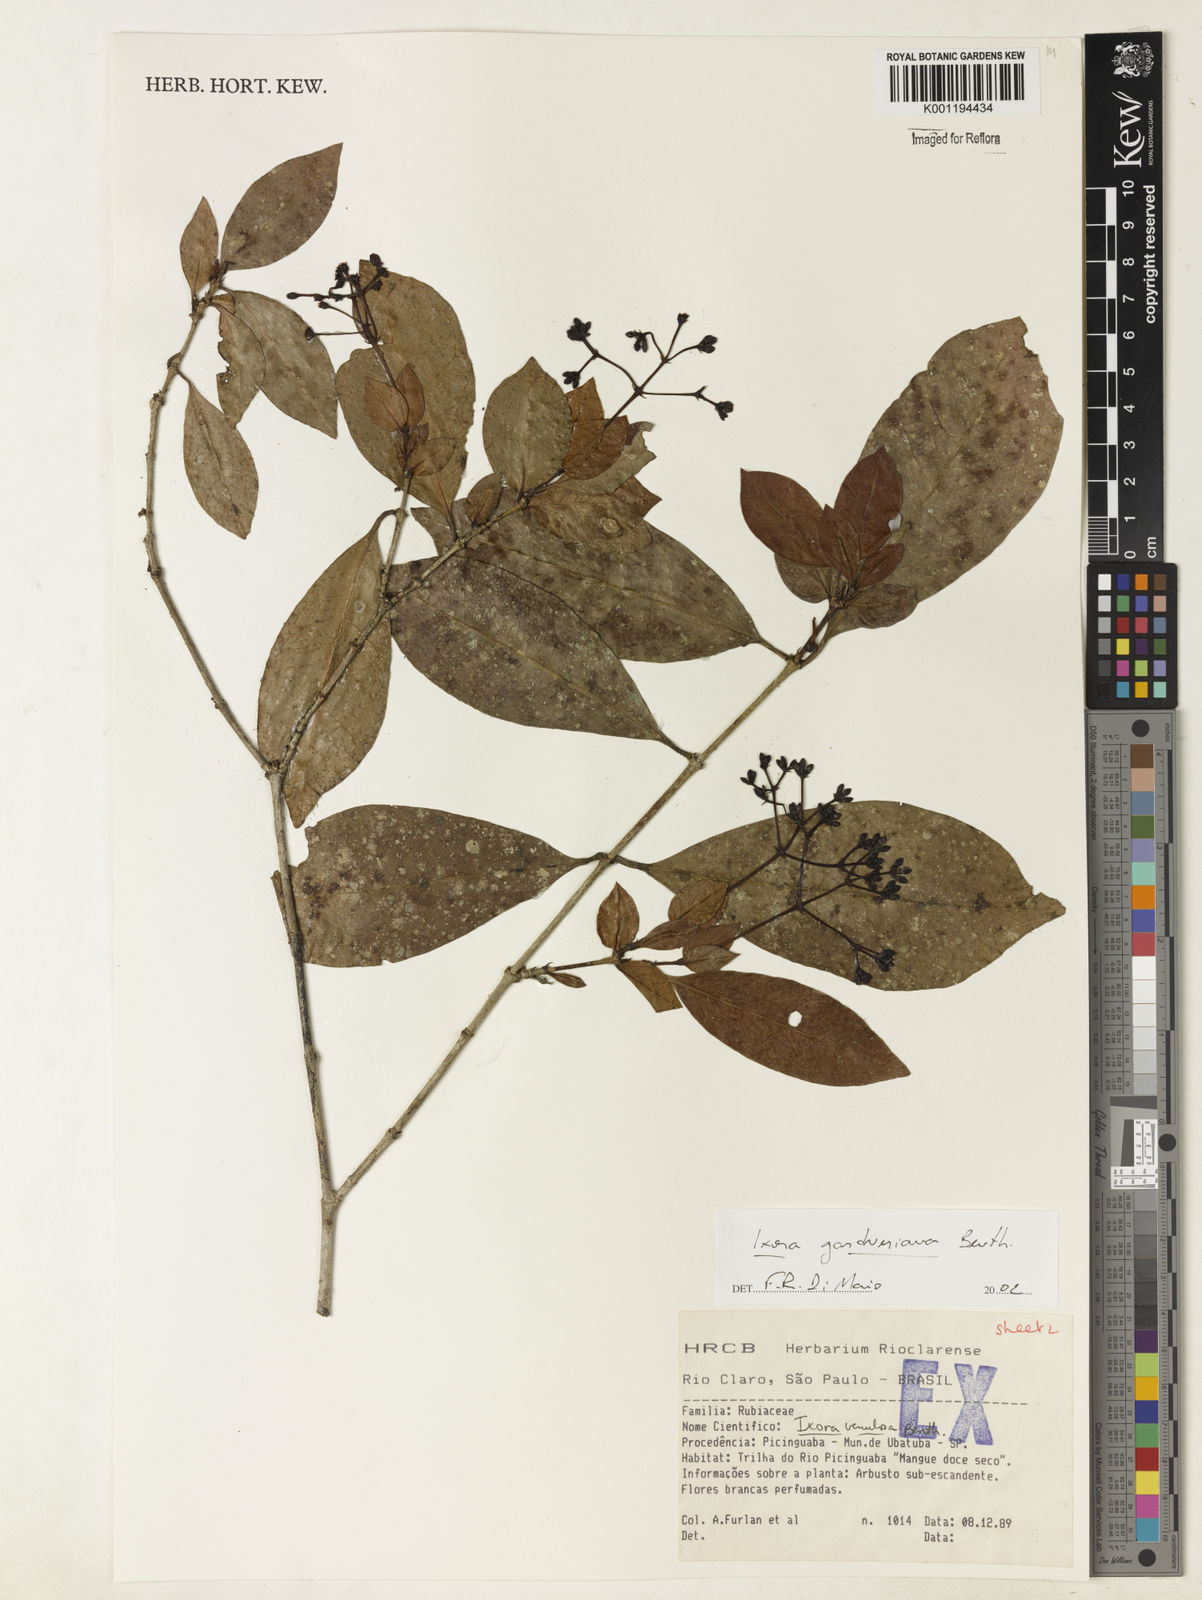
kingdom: Plantae
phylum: Tracheophyta
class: Magnoliopsida
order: Gentianales
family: Rubiaceae
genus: Ixora
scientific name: Ixora gardneriana
